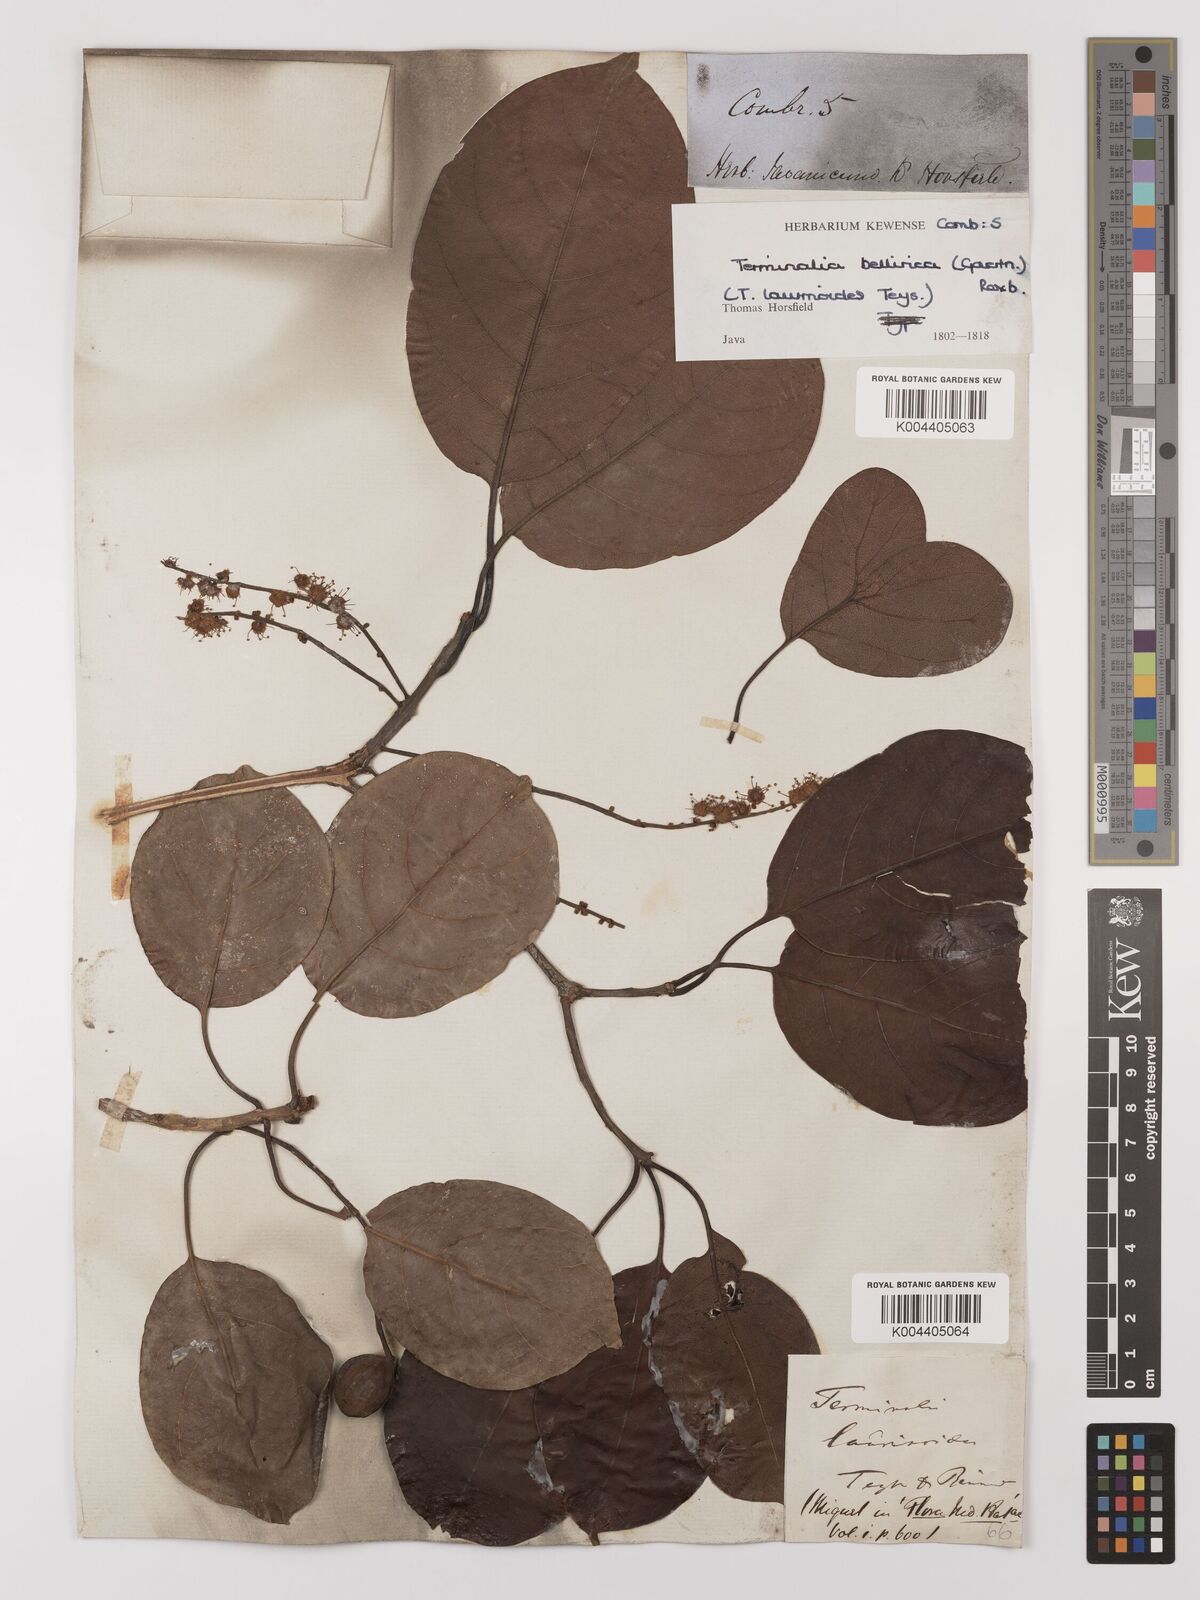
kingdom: Plantae
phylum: Tracheophyta
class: Magnoliopsida
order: Myrtales
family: Combretaceae
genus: Terminalia
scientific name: Terminalia bellirica
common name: Beleric myrobalan
